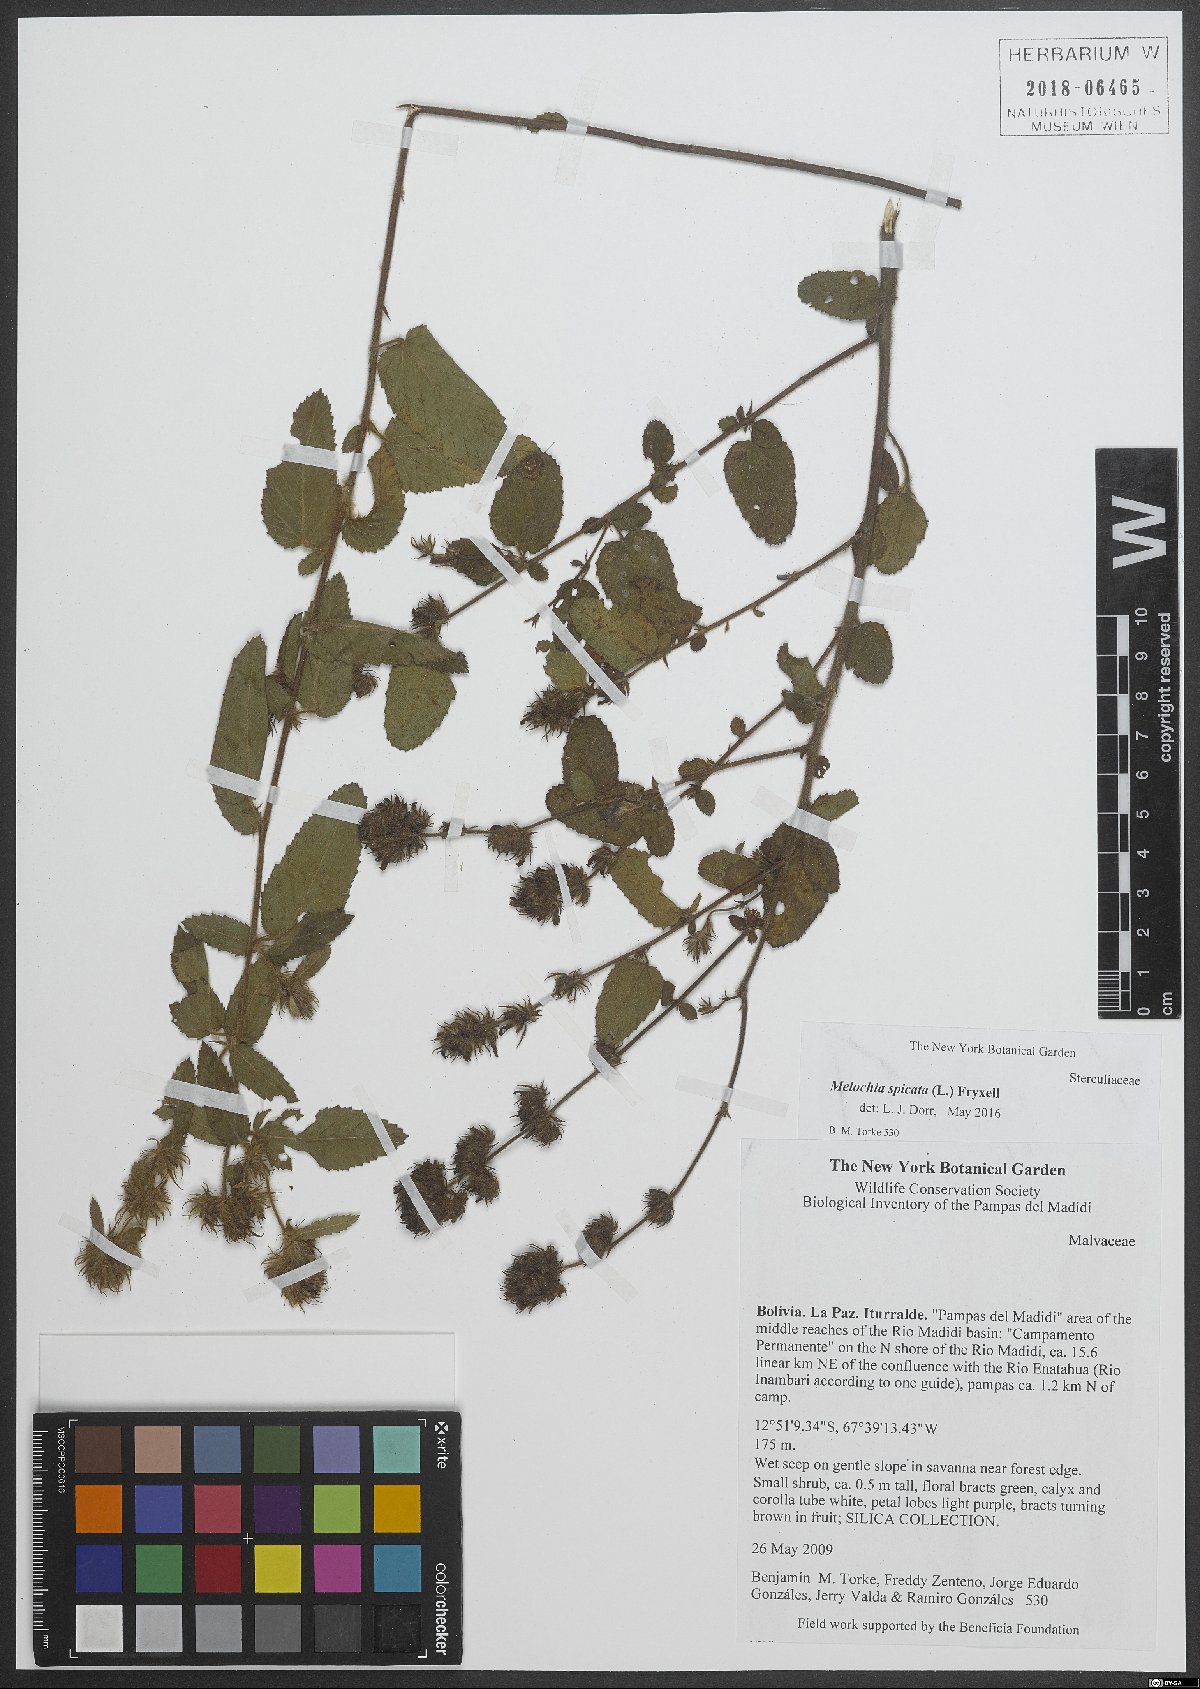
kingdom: Plantae
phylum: Tracheophyta
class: Magnoliopsida
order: Malvales
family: Malvaceae
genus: Melochia
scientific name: Melochia spicata
